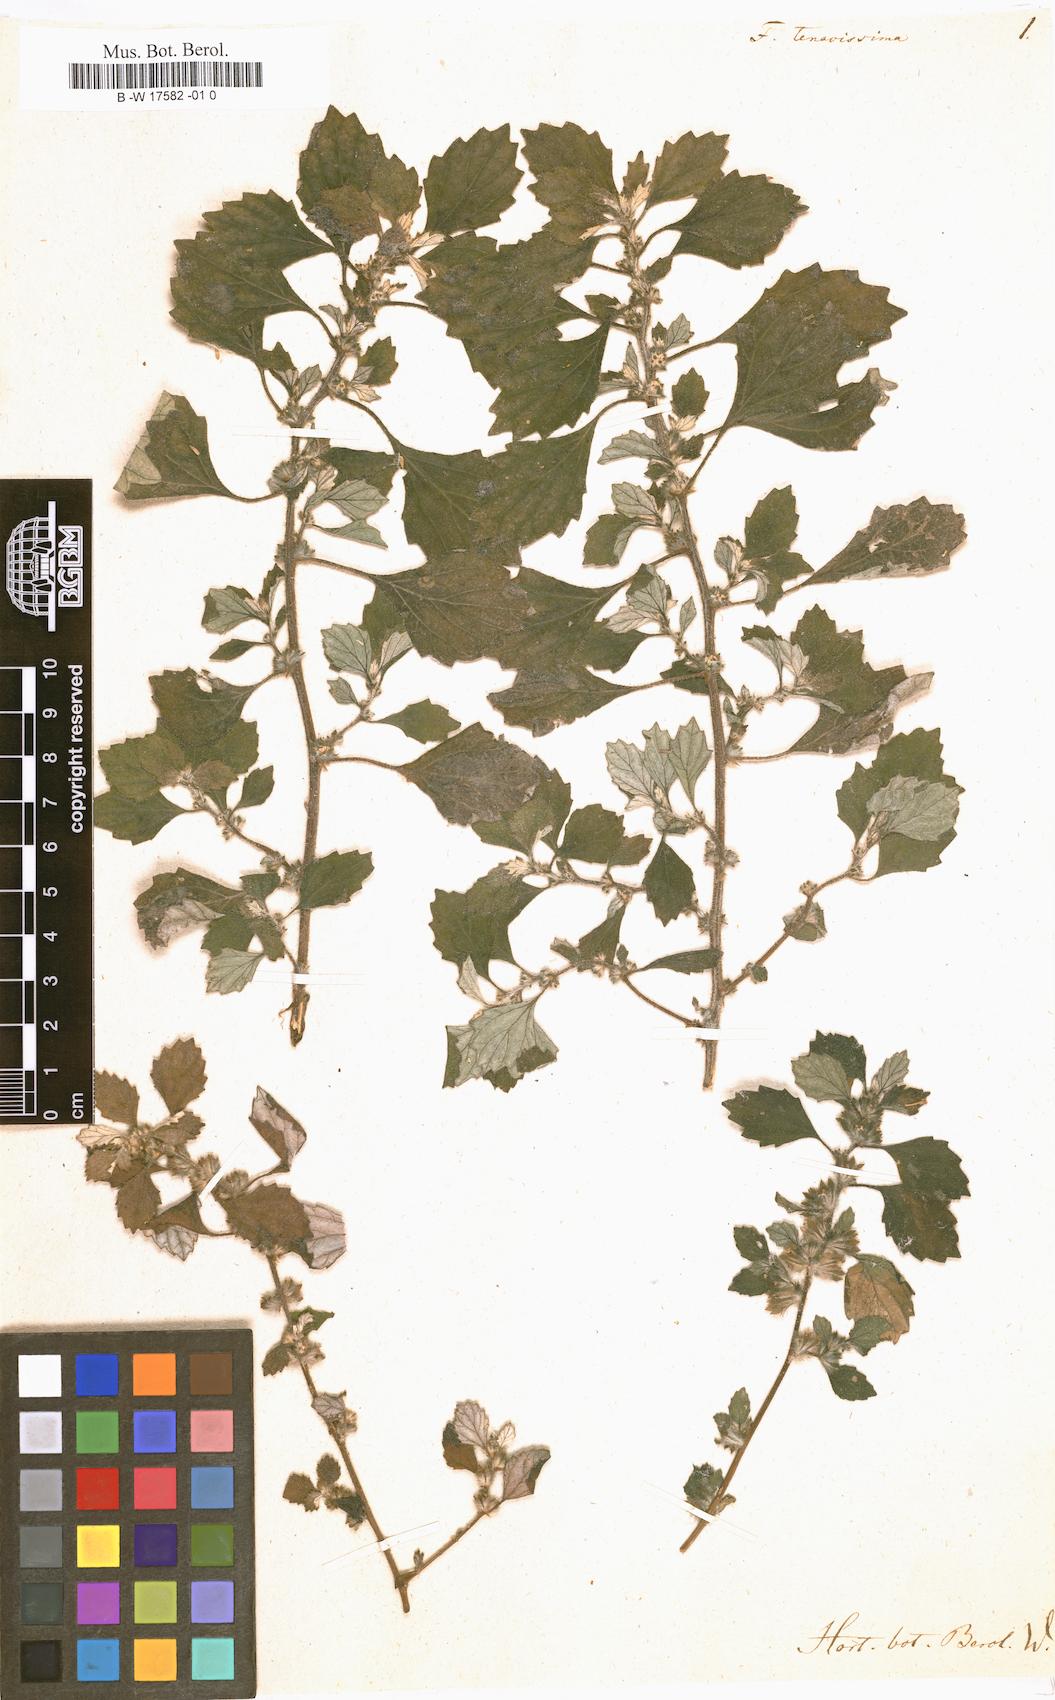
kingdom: Plantae
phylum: Tracheophyta
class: Magnoliopsida
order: Rosales
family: Urticaceae
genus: Forskohlea
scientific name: Forskohlea
